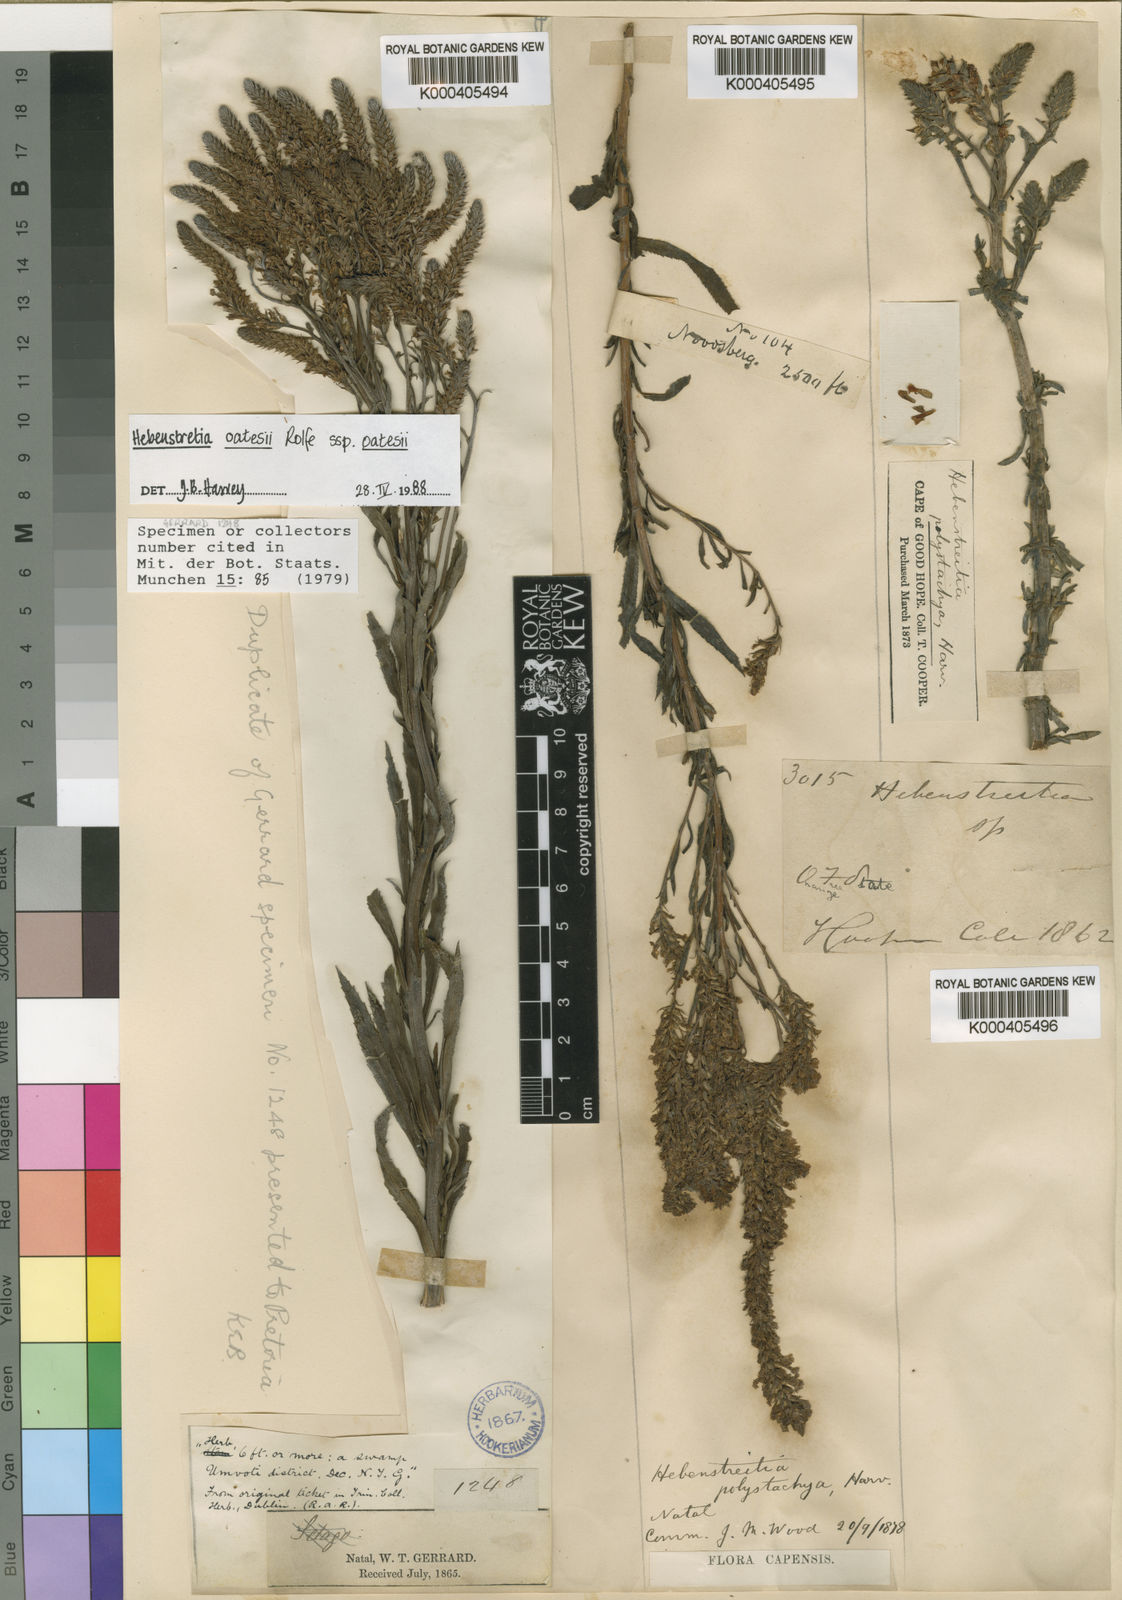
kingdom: Plantae
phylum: Tracheophyta
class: Magnoliopsida
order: Lamiales
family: Scrophulariaceae
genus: Hebenstretia
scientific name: Hebenstretia oatesii
